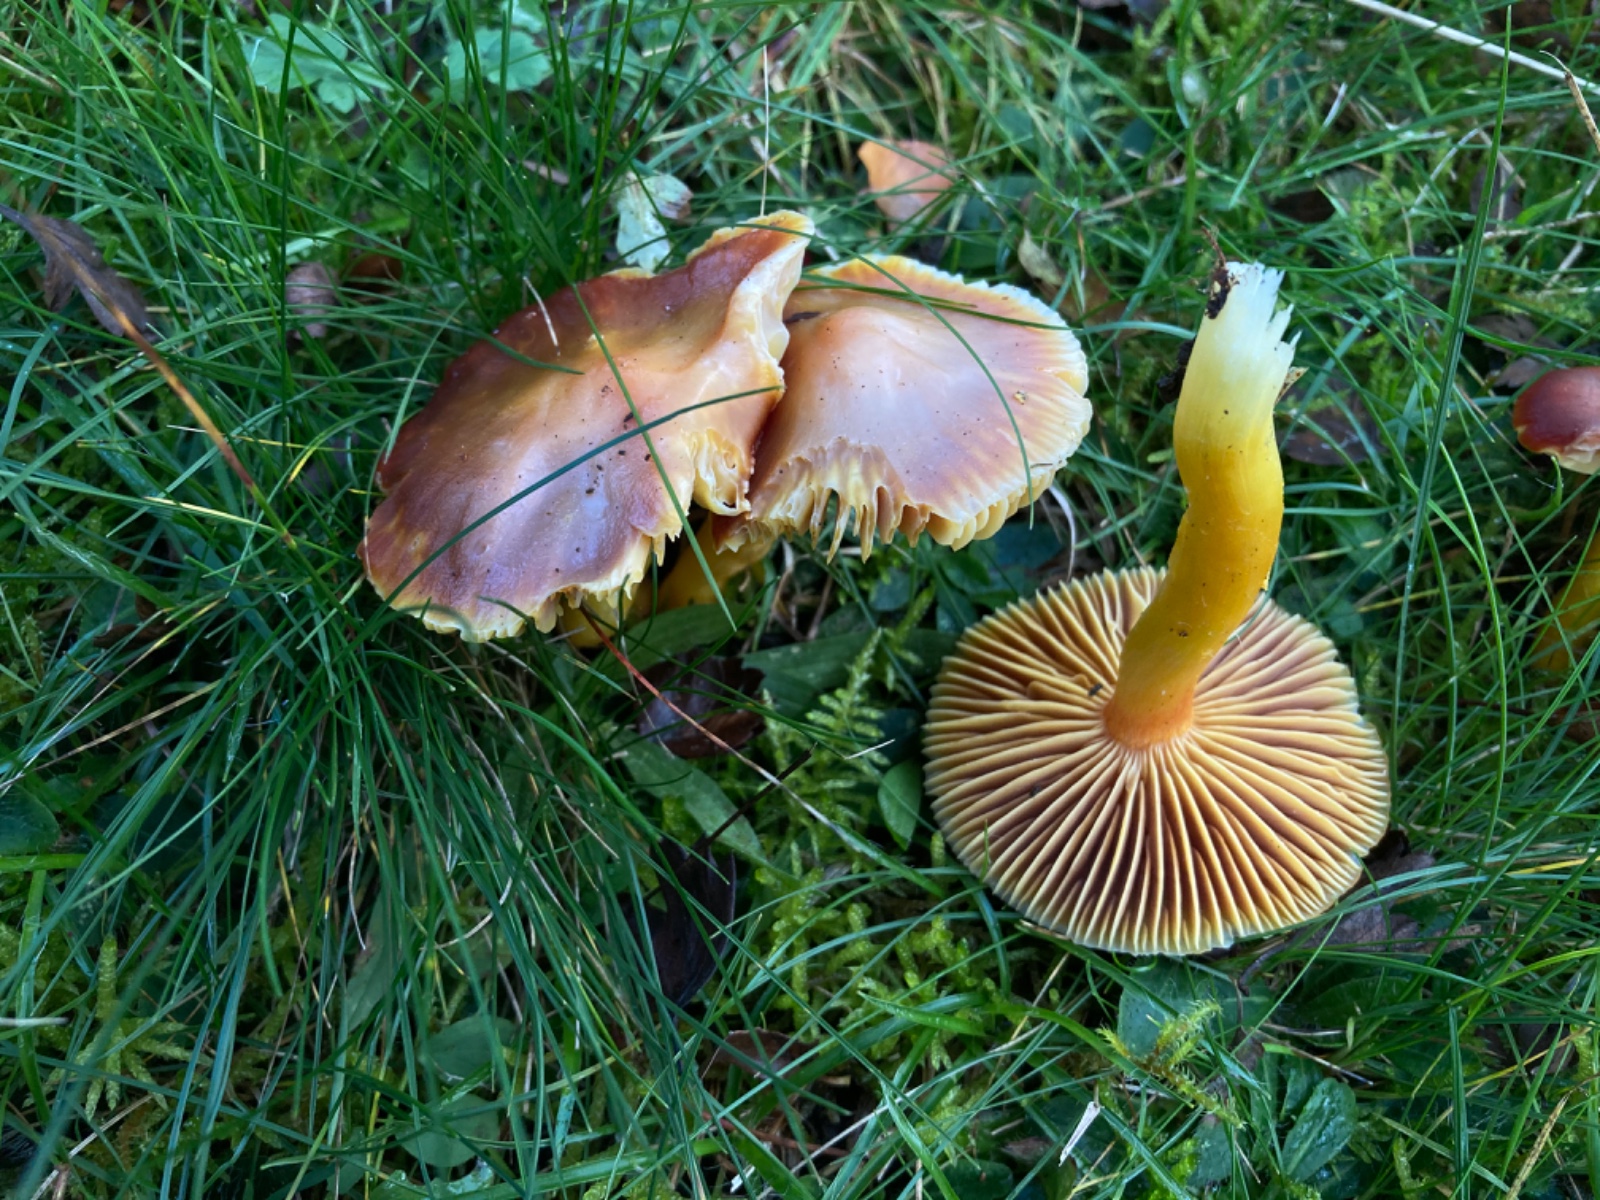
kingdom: Fungi
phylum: Basidiomycota
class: Agaricomycetes
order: Agaricales
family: Hygrophoraceae
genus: Hygrocybe
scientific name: Hygrocybe punicea
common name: skarlagen-vokshat
